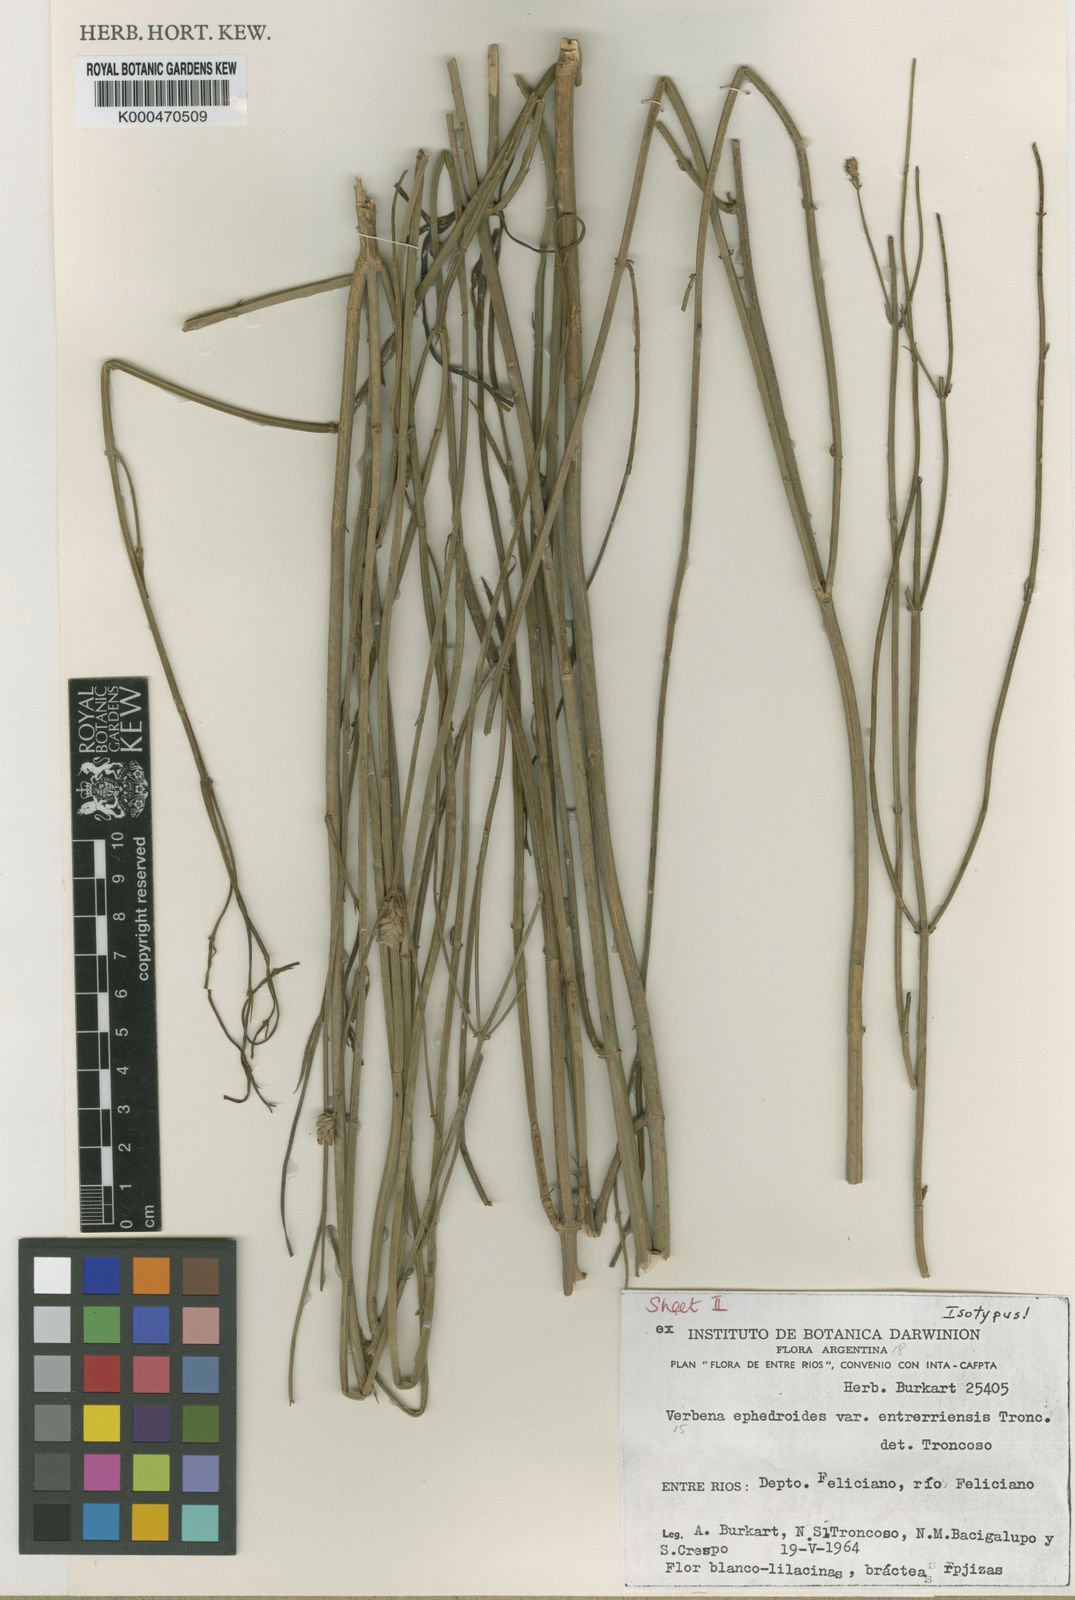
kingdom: Plantae
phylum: Tracheophyta
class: Magnoliopsida
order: Lamiales
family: Verbenaceae
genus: Verbena
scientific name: Verbena ephedroides
